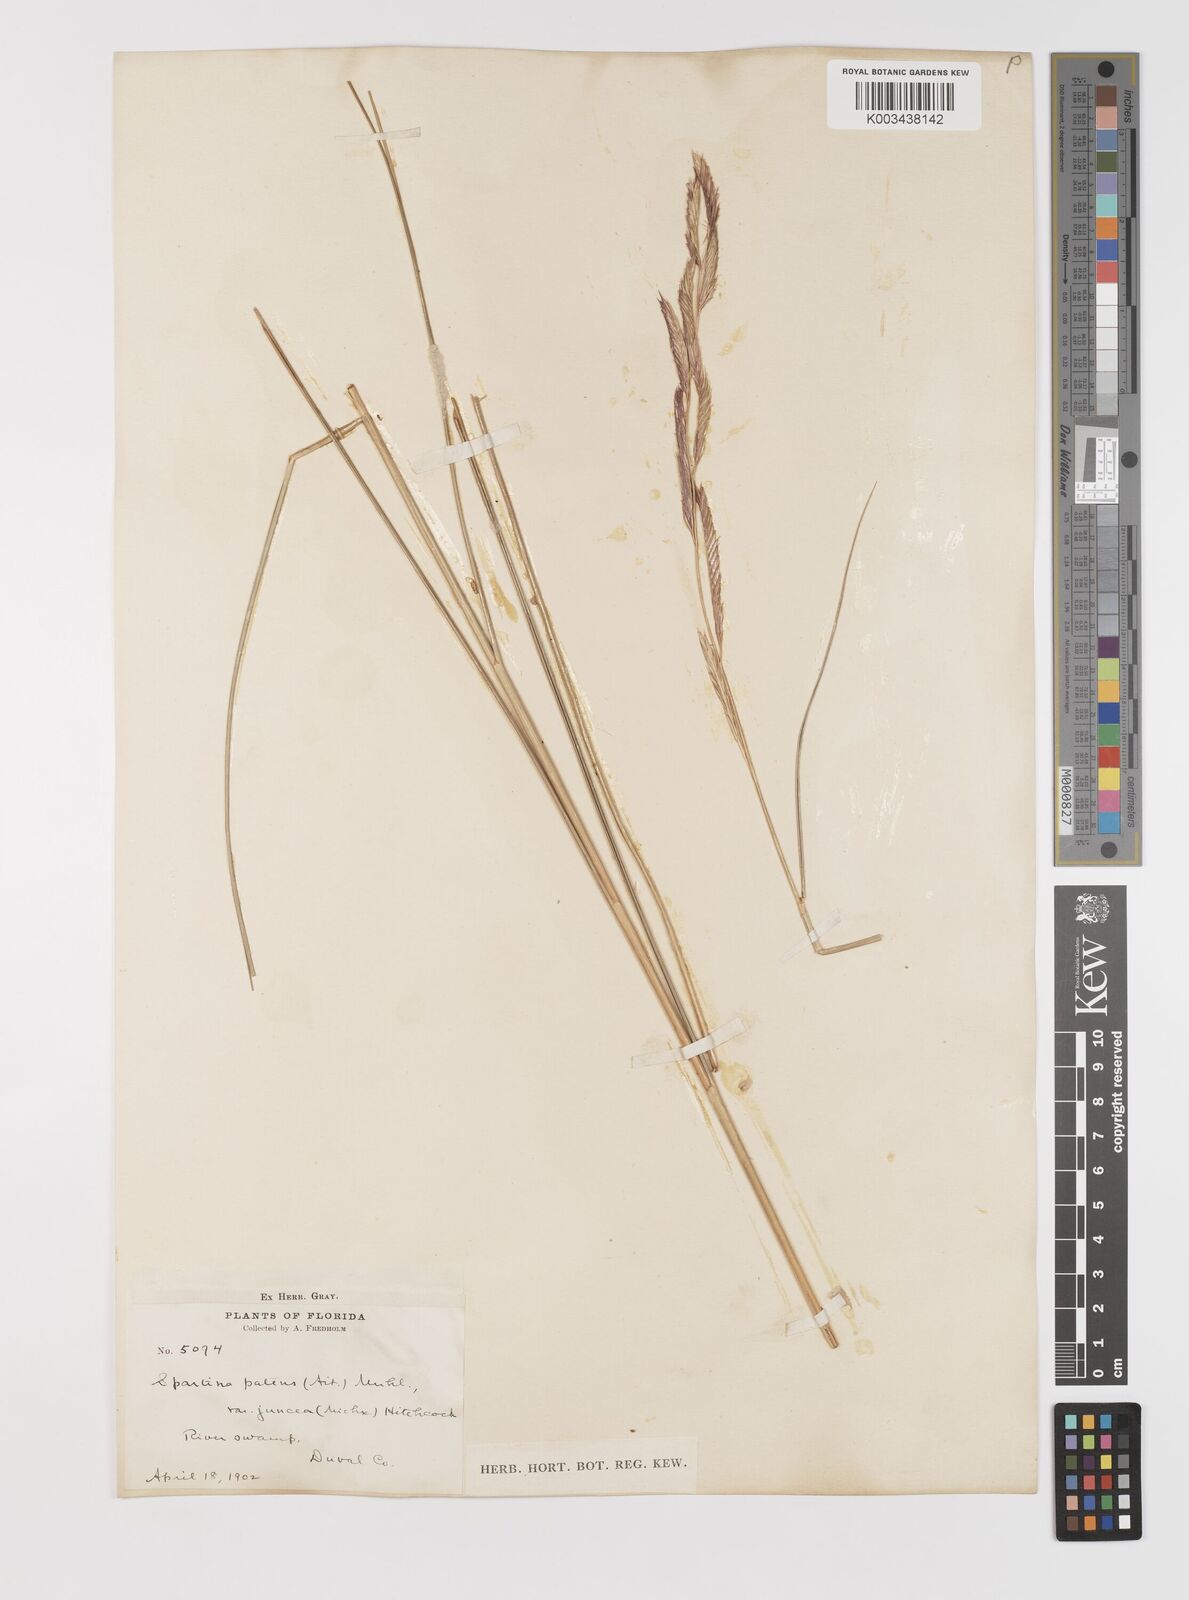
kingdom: Plantae
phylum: Tracheophyta
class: Liliopsida
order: Poales
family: Poaceae
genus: Sporobolus
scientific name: Sporobolus pumilus
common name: Highwater grass
